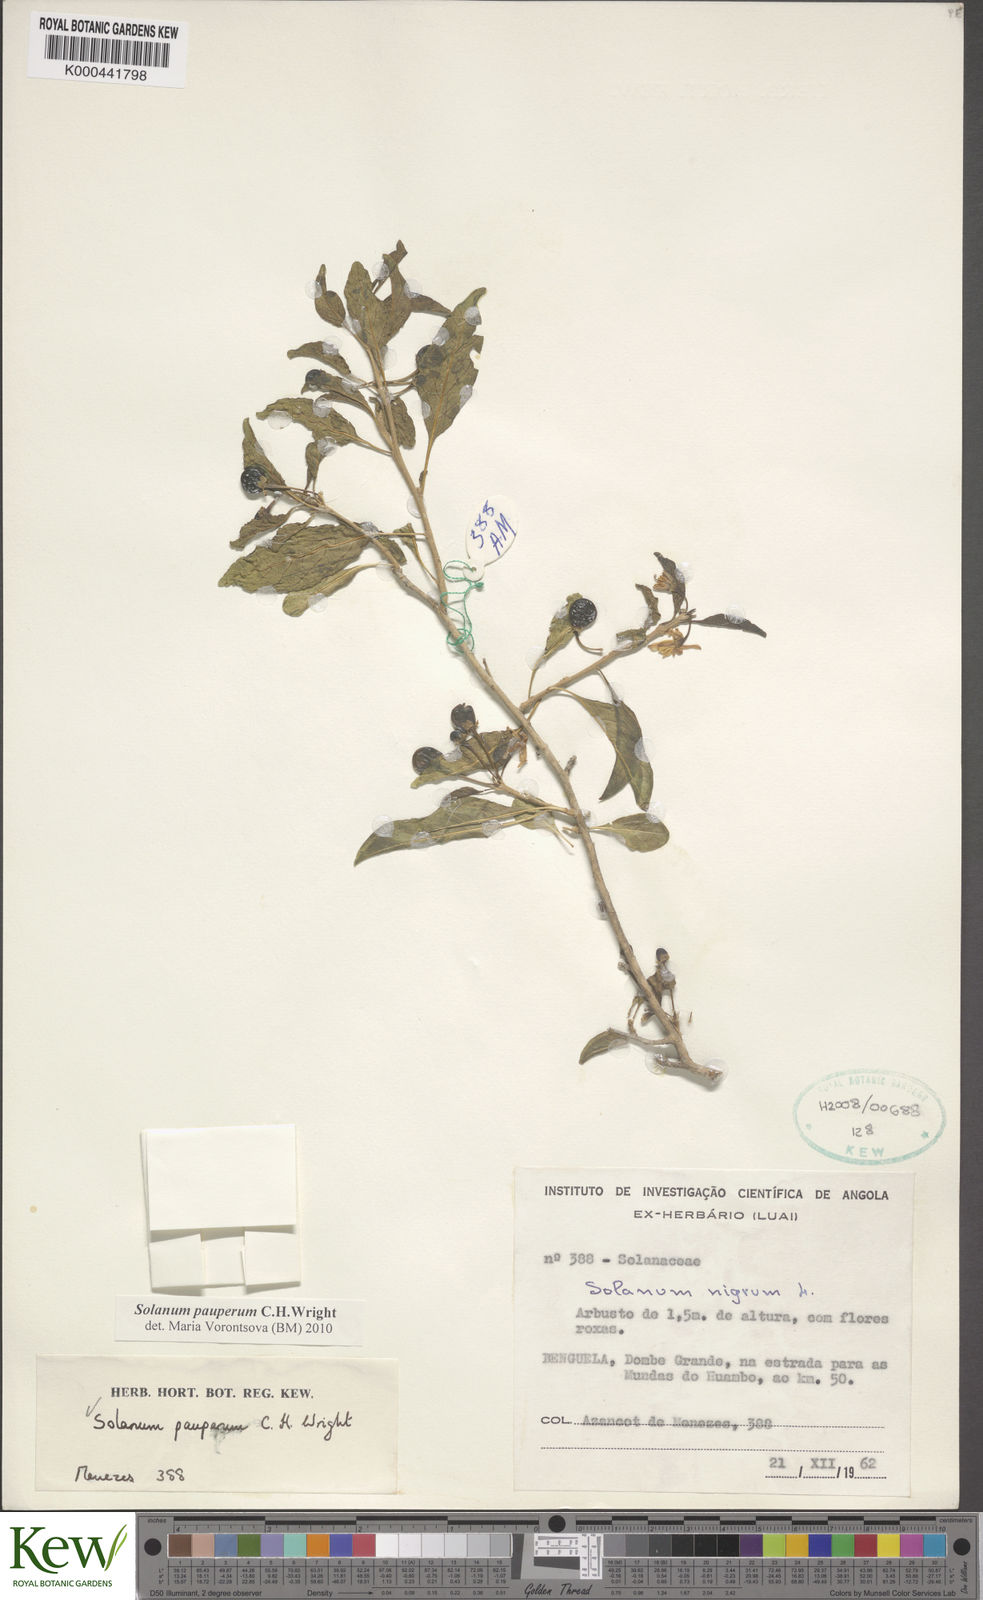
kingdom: Plantae
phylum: Tracheophyta
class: Magnoliopsida
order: Solanales
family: Solanaceae
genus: Solanum
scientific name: Solanum anomalum
